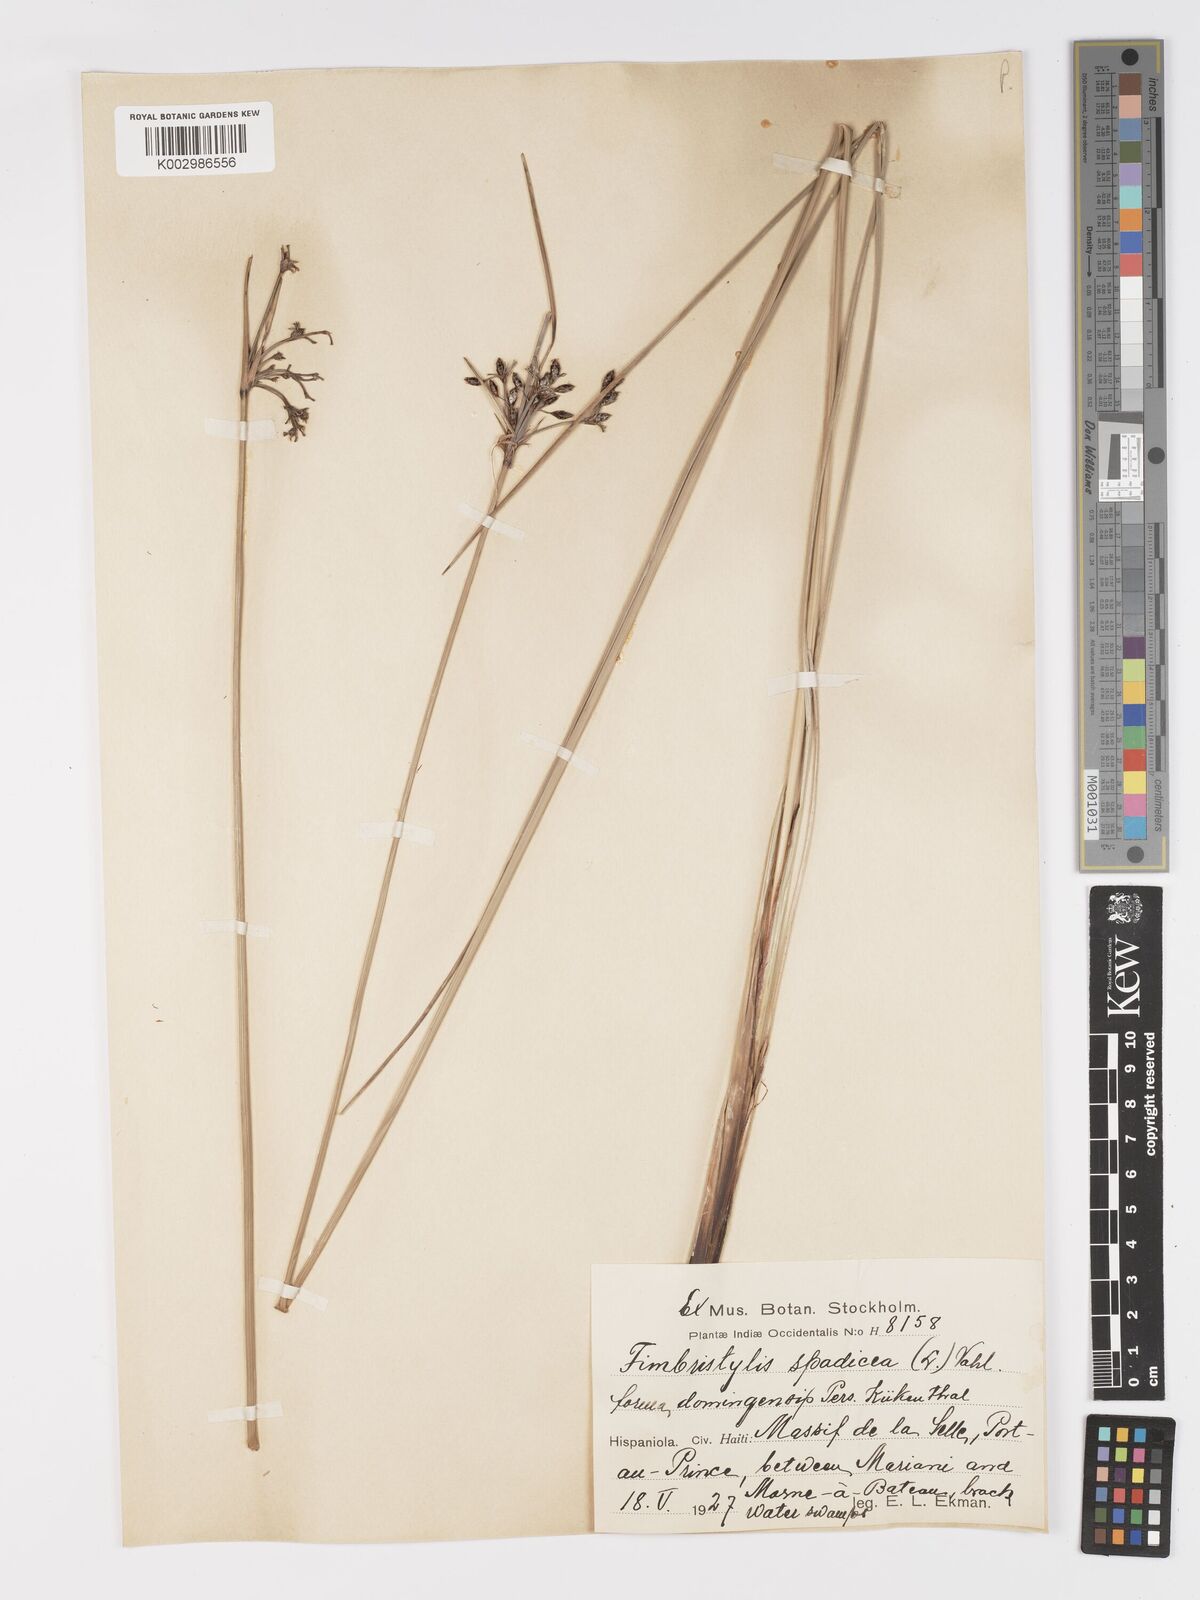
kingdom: Plantae
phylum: Tracheophyta
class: Liliopsida
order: Poales
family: Cyperaceae
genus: Fimbristylis
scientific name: Fimbristylis spadicea
